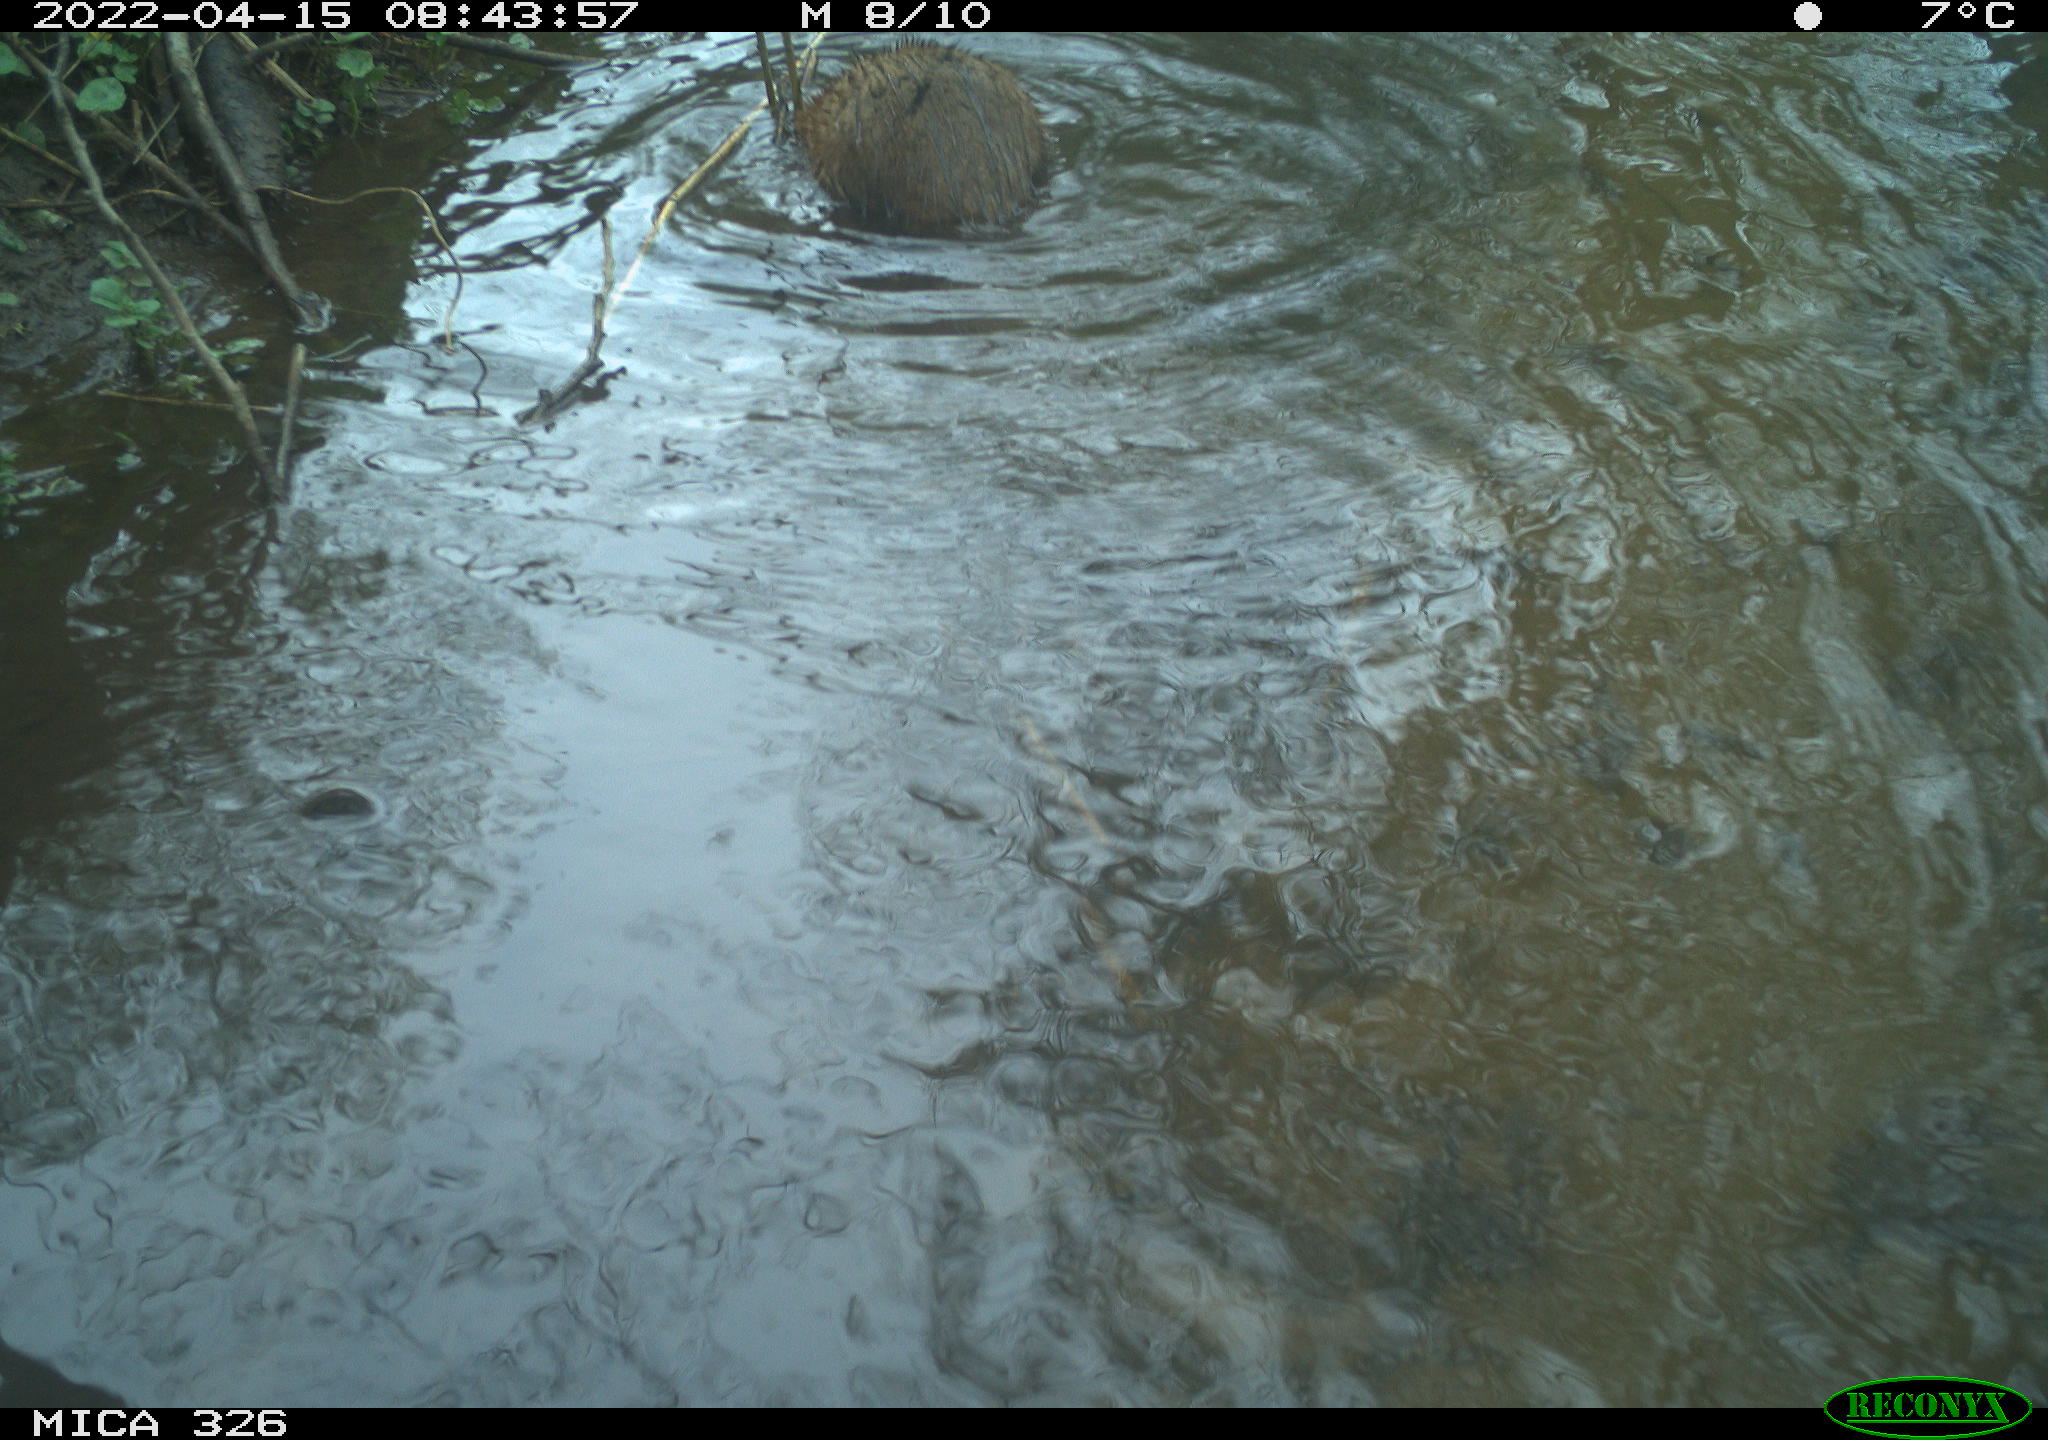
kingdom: Animalia
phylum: Chordata
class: Mammalia
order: Rodentia
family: Cricetidae
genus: Ondatra
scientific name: Ondatra zibethicus
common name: Muskrat
